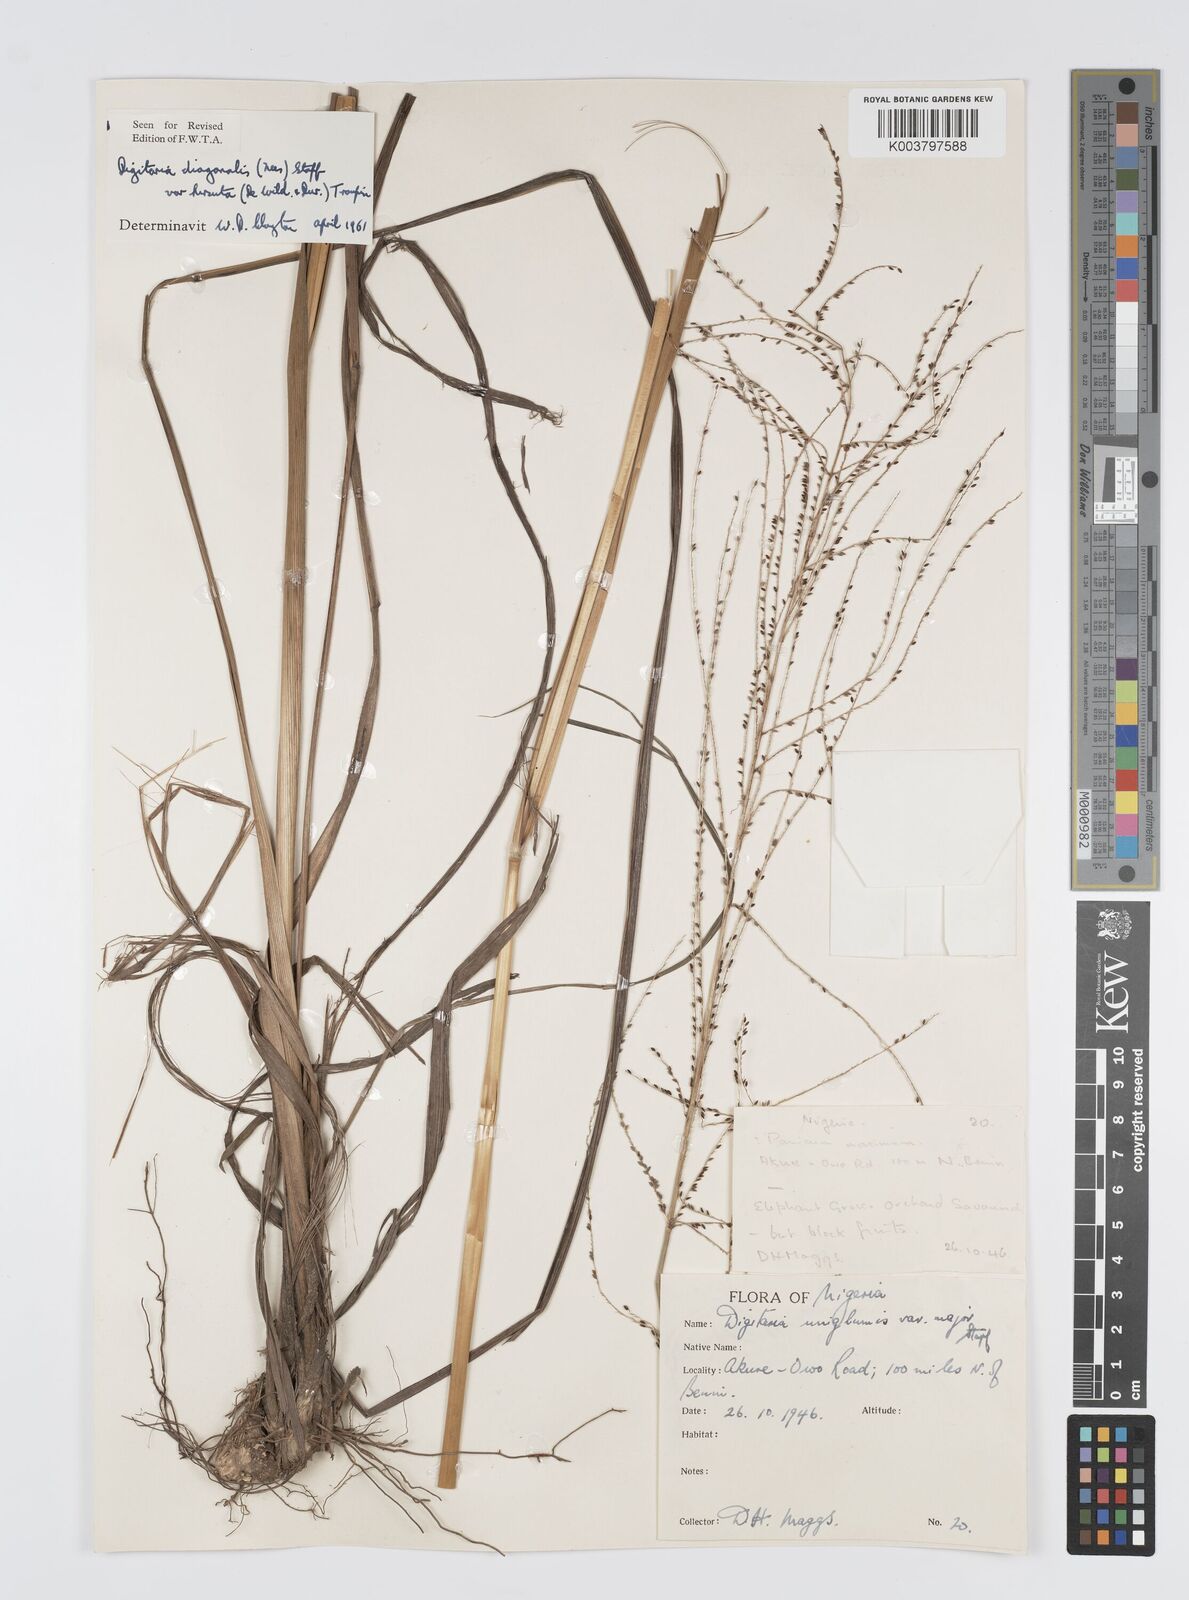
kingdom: Plantae
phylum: Tracheophyta
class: Liliopsida
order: Poales
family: Poaceae
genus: Digitaria
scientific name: Digitaria diagonalis
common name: Brown-seed finger grass
